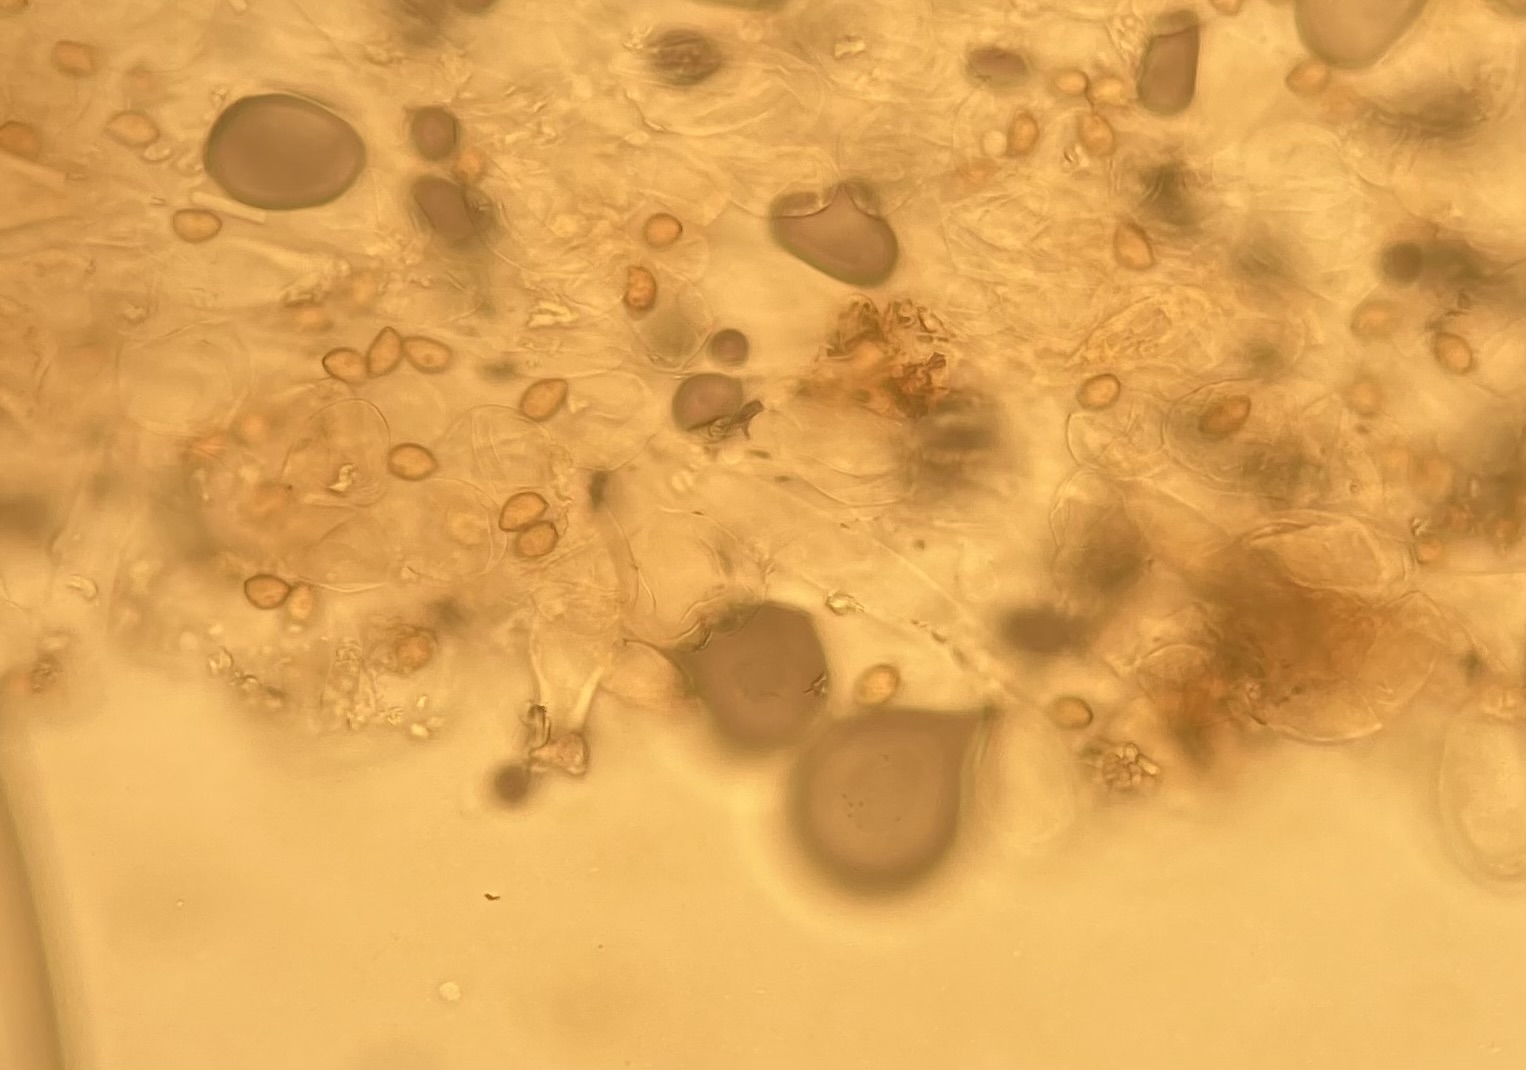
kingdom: Fungi
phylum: Basidiomycota
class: Agaricomycetes
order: Agaricales
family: Inocybaceae
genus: Inocybe
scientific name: Inocybe fraudans
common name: pæreduftende trævlhat
